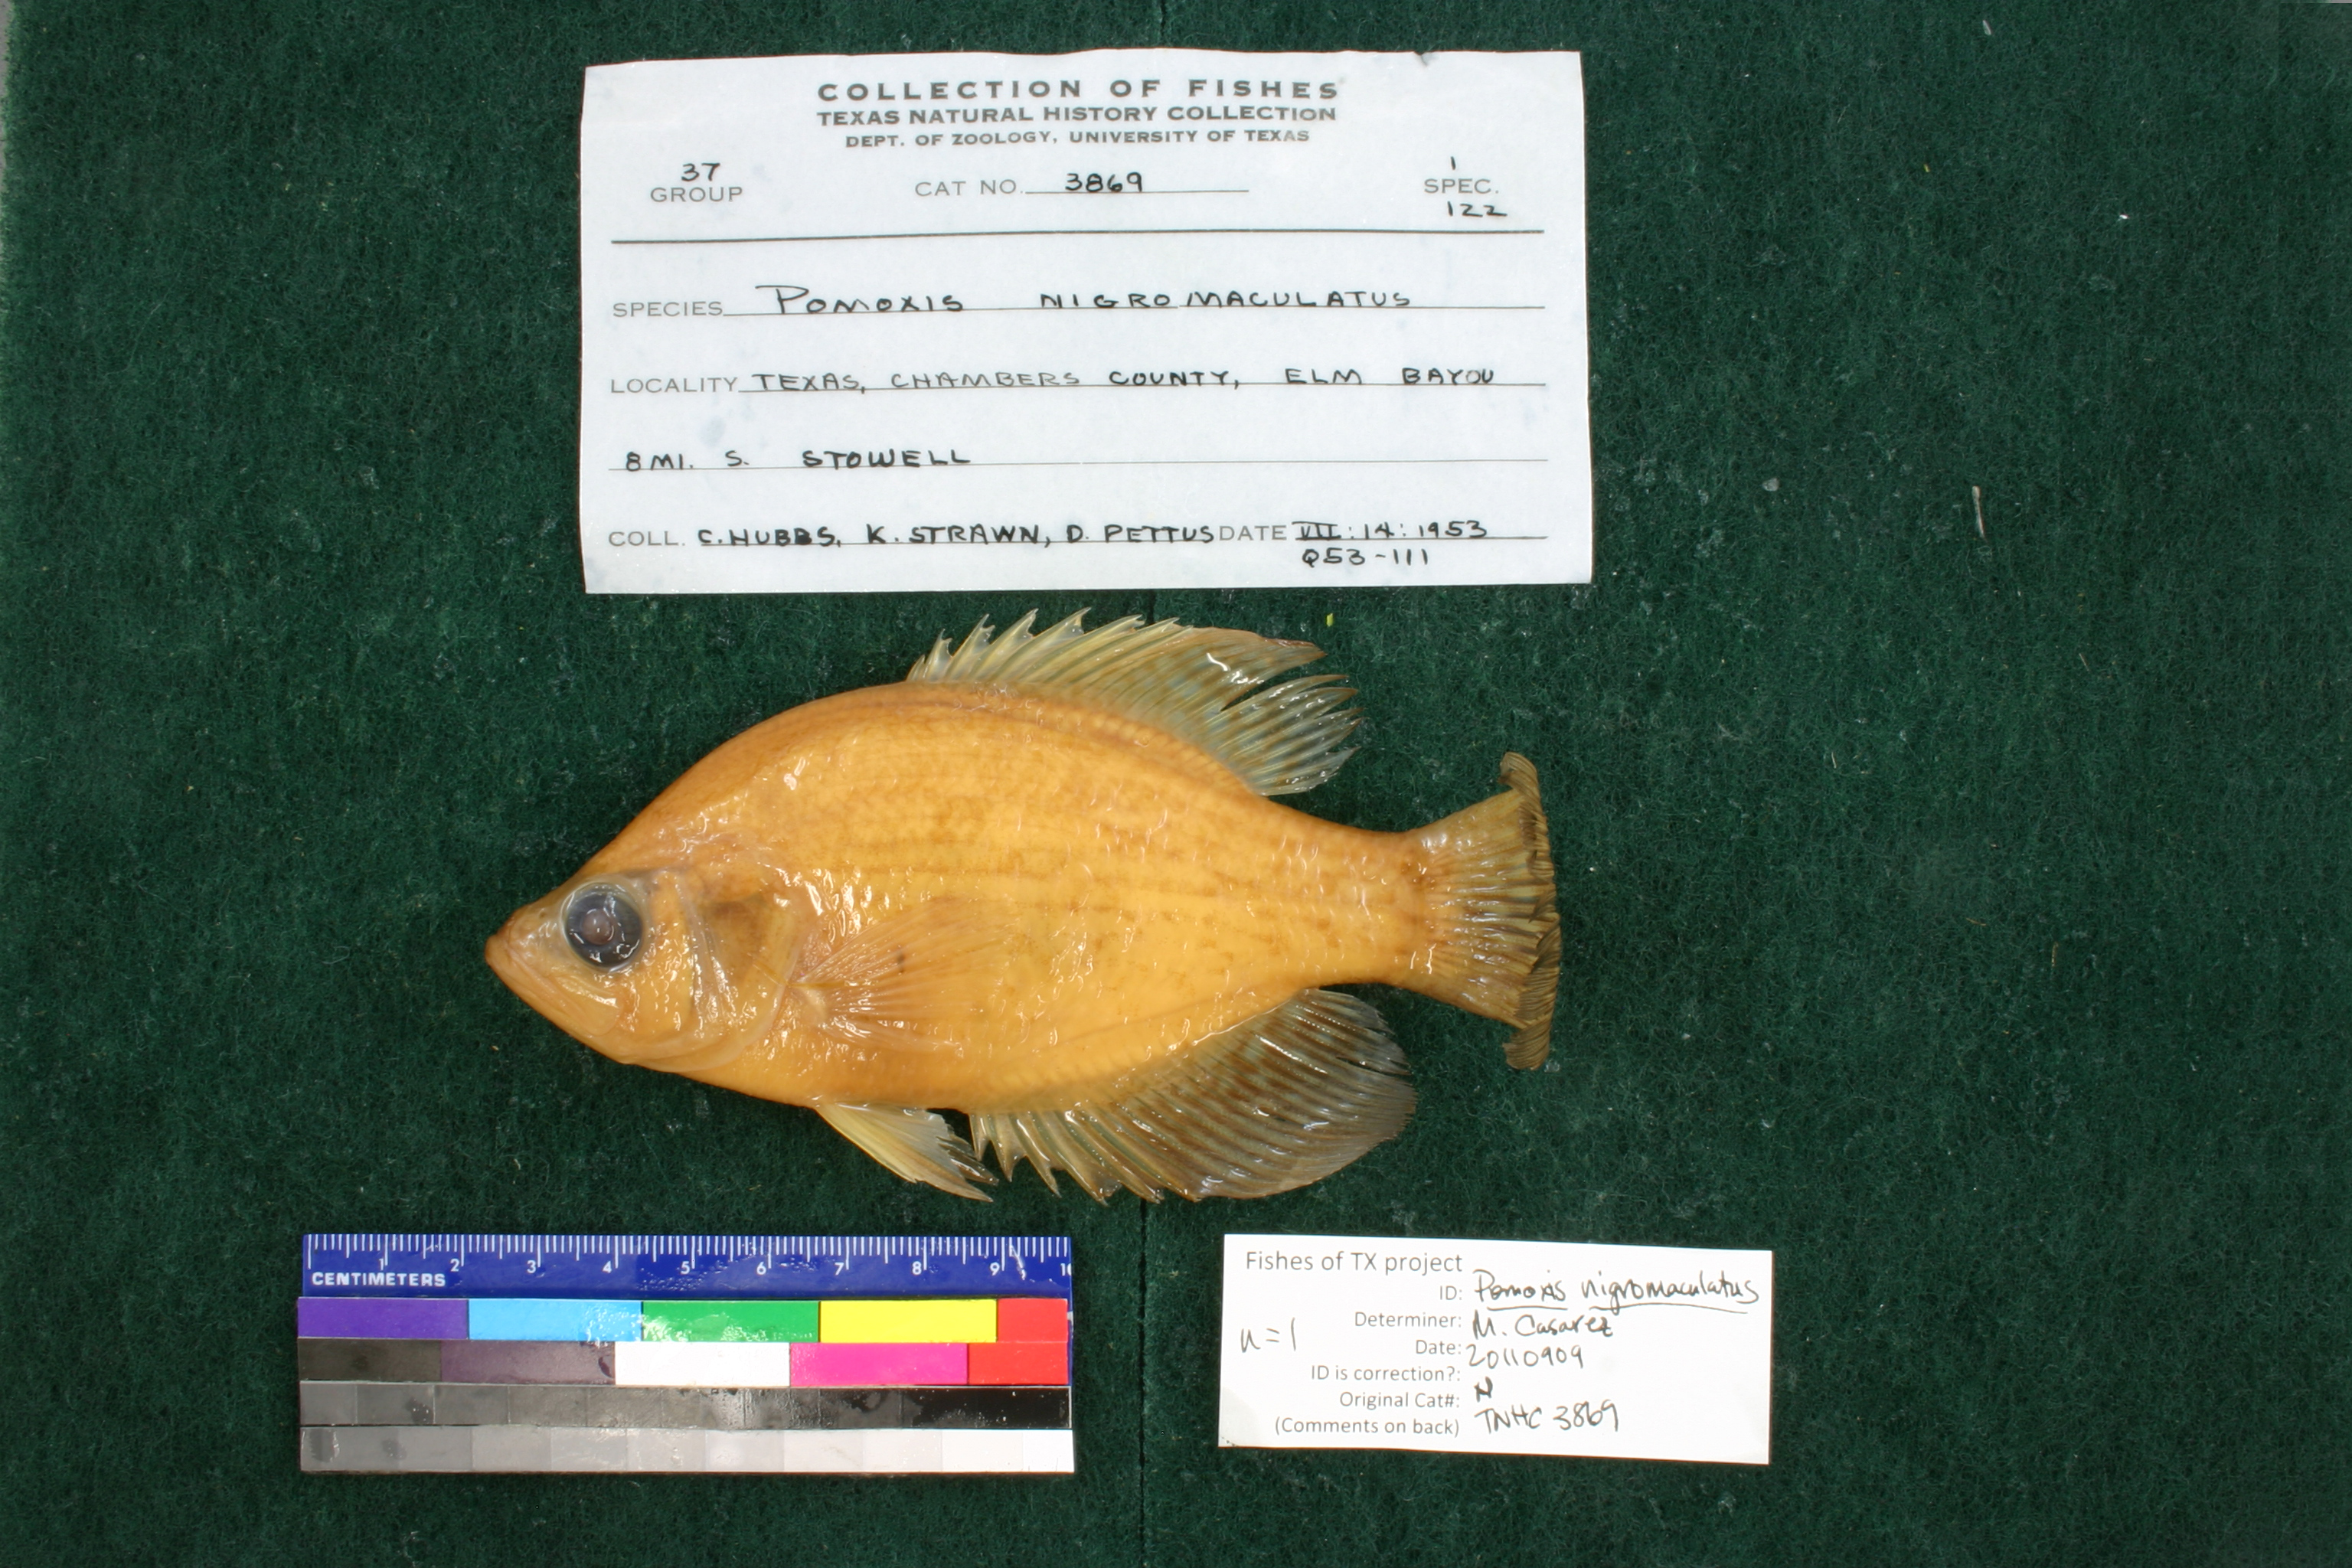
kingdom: Animalia
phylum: Chordata
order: Perciformes
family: Centrarchidae
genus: Pomoxis
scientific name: Pomoxis nigromaculatus
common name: Black crappie
